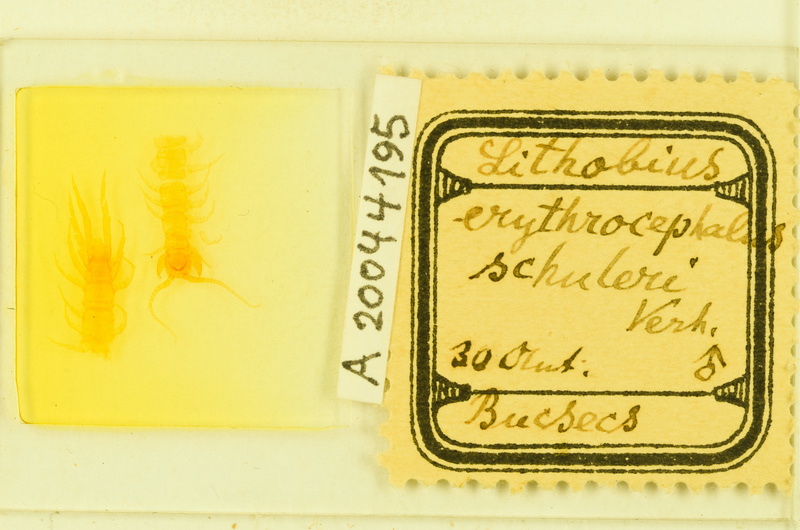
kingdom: Animalia
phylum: Arthropoda
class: Chilopoda
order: Lithobiomorpha
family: Lithobiidae
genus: Lithobius
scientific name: Lithobius erythrocephalus
